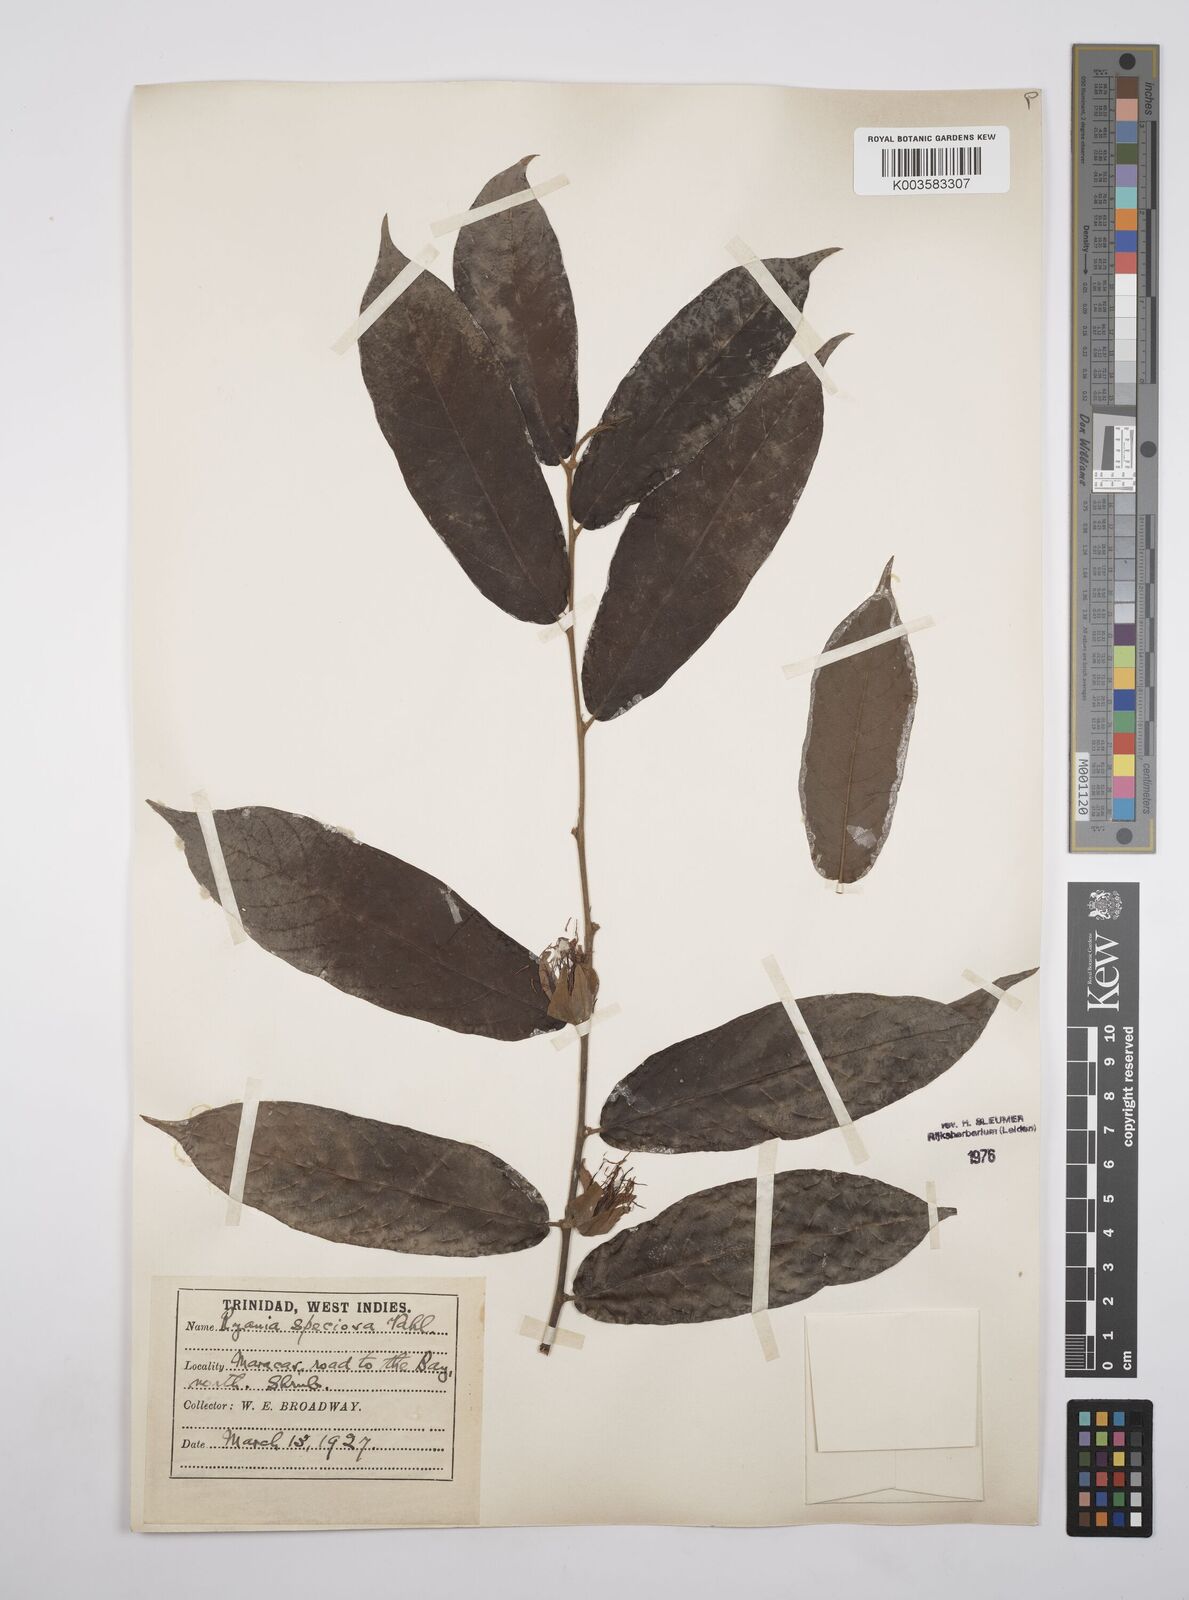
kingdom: Plantae
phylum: Tracheophyta
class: Magnoliopsida
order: Malpighiales
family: Salicaceae
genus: Ryania
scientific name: Ryania speciosa
